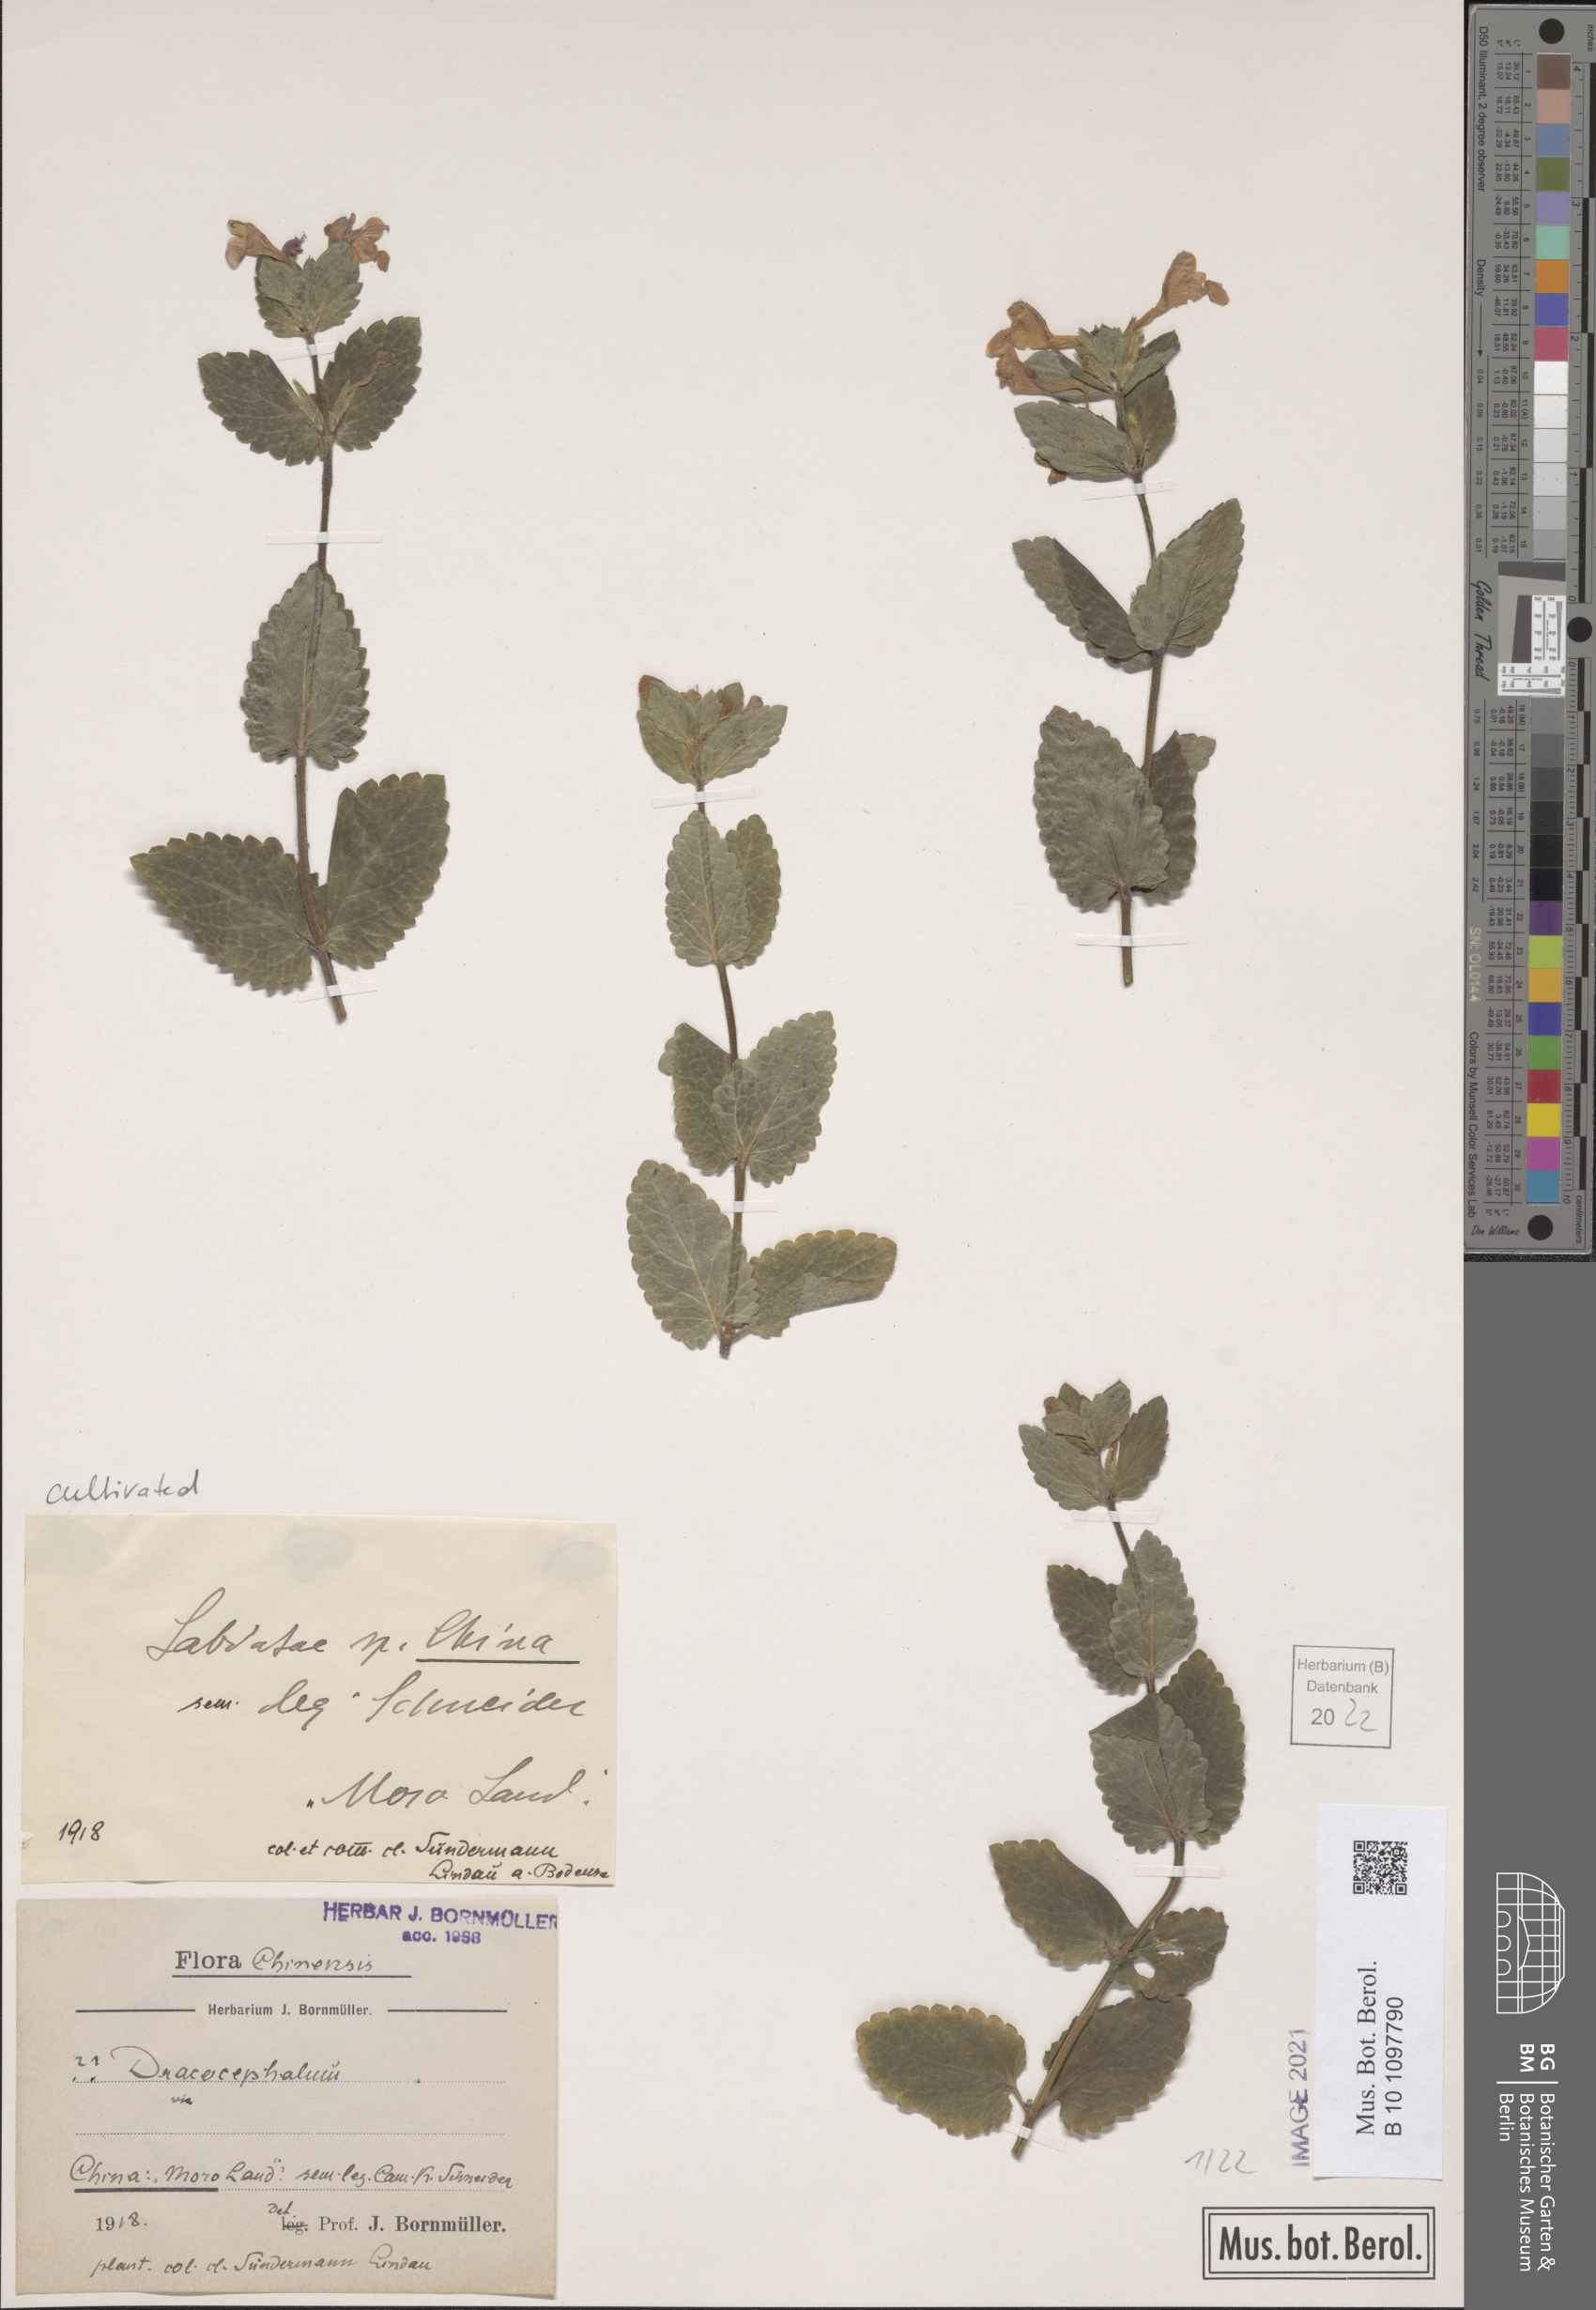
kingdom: Plantae
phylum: Tracheophyta
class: Magnoliopsida
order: Lamiales
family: Lamiaceae
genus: Dracocephalum
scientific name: Dracocephalum
